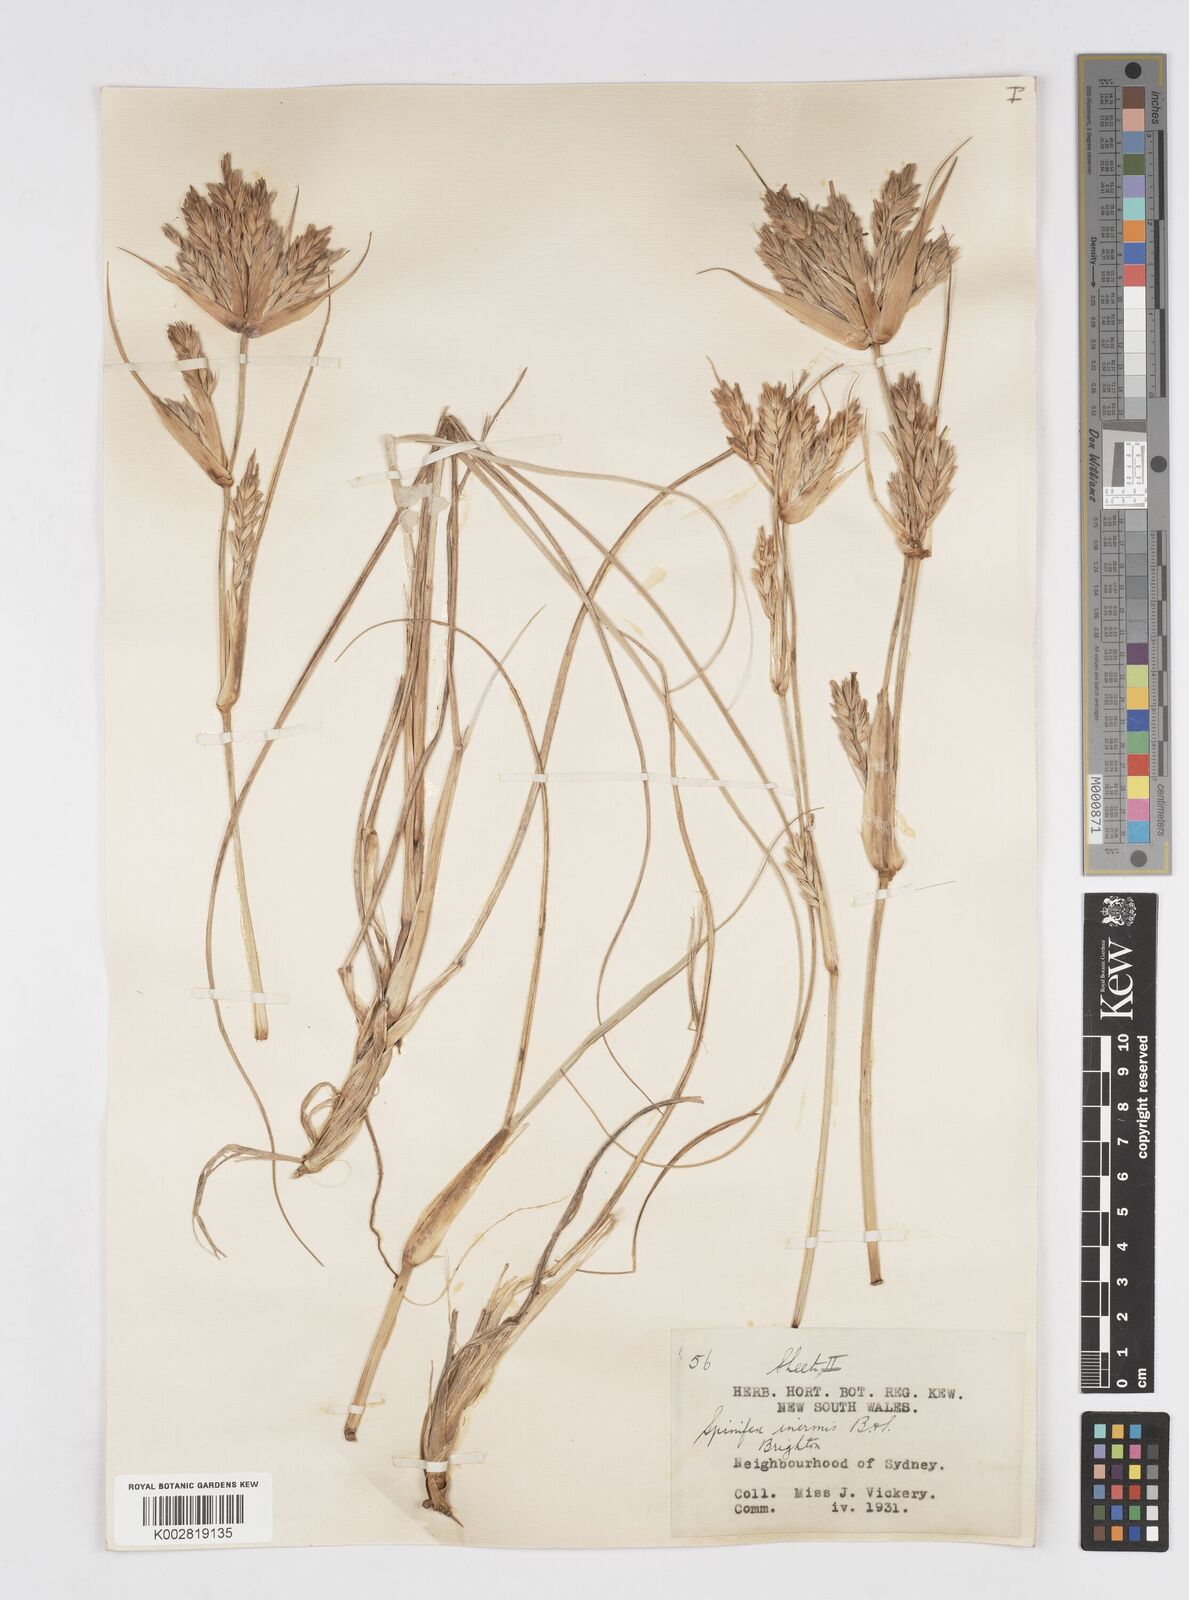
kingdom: Plantae
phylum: Tracheophyta
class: Liliopsida
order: Poales
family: Poaceae
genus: Spinifex
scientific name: Spinifex sericeus
